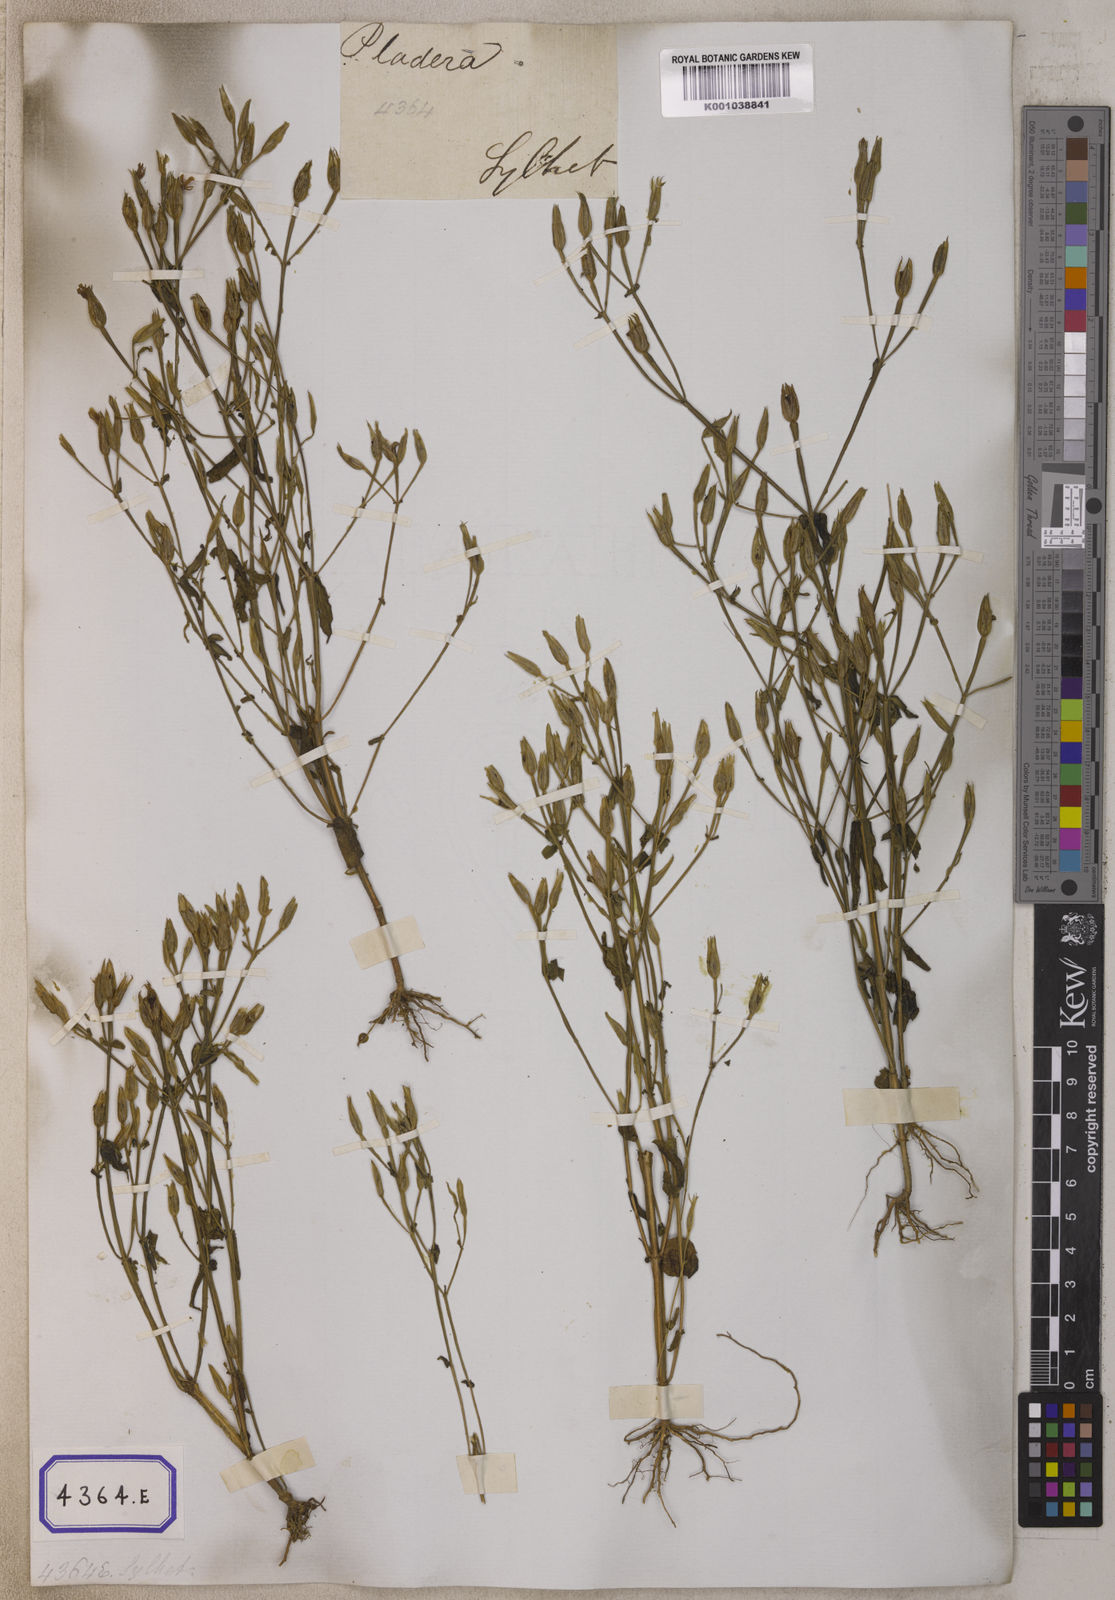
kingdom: Plantae
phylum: Tracheophyta
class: Magnoliopsida
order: Gentianales
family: Gentianaceae
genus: Canscora
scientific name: Canscora alata
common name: Canscora
